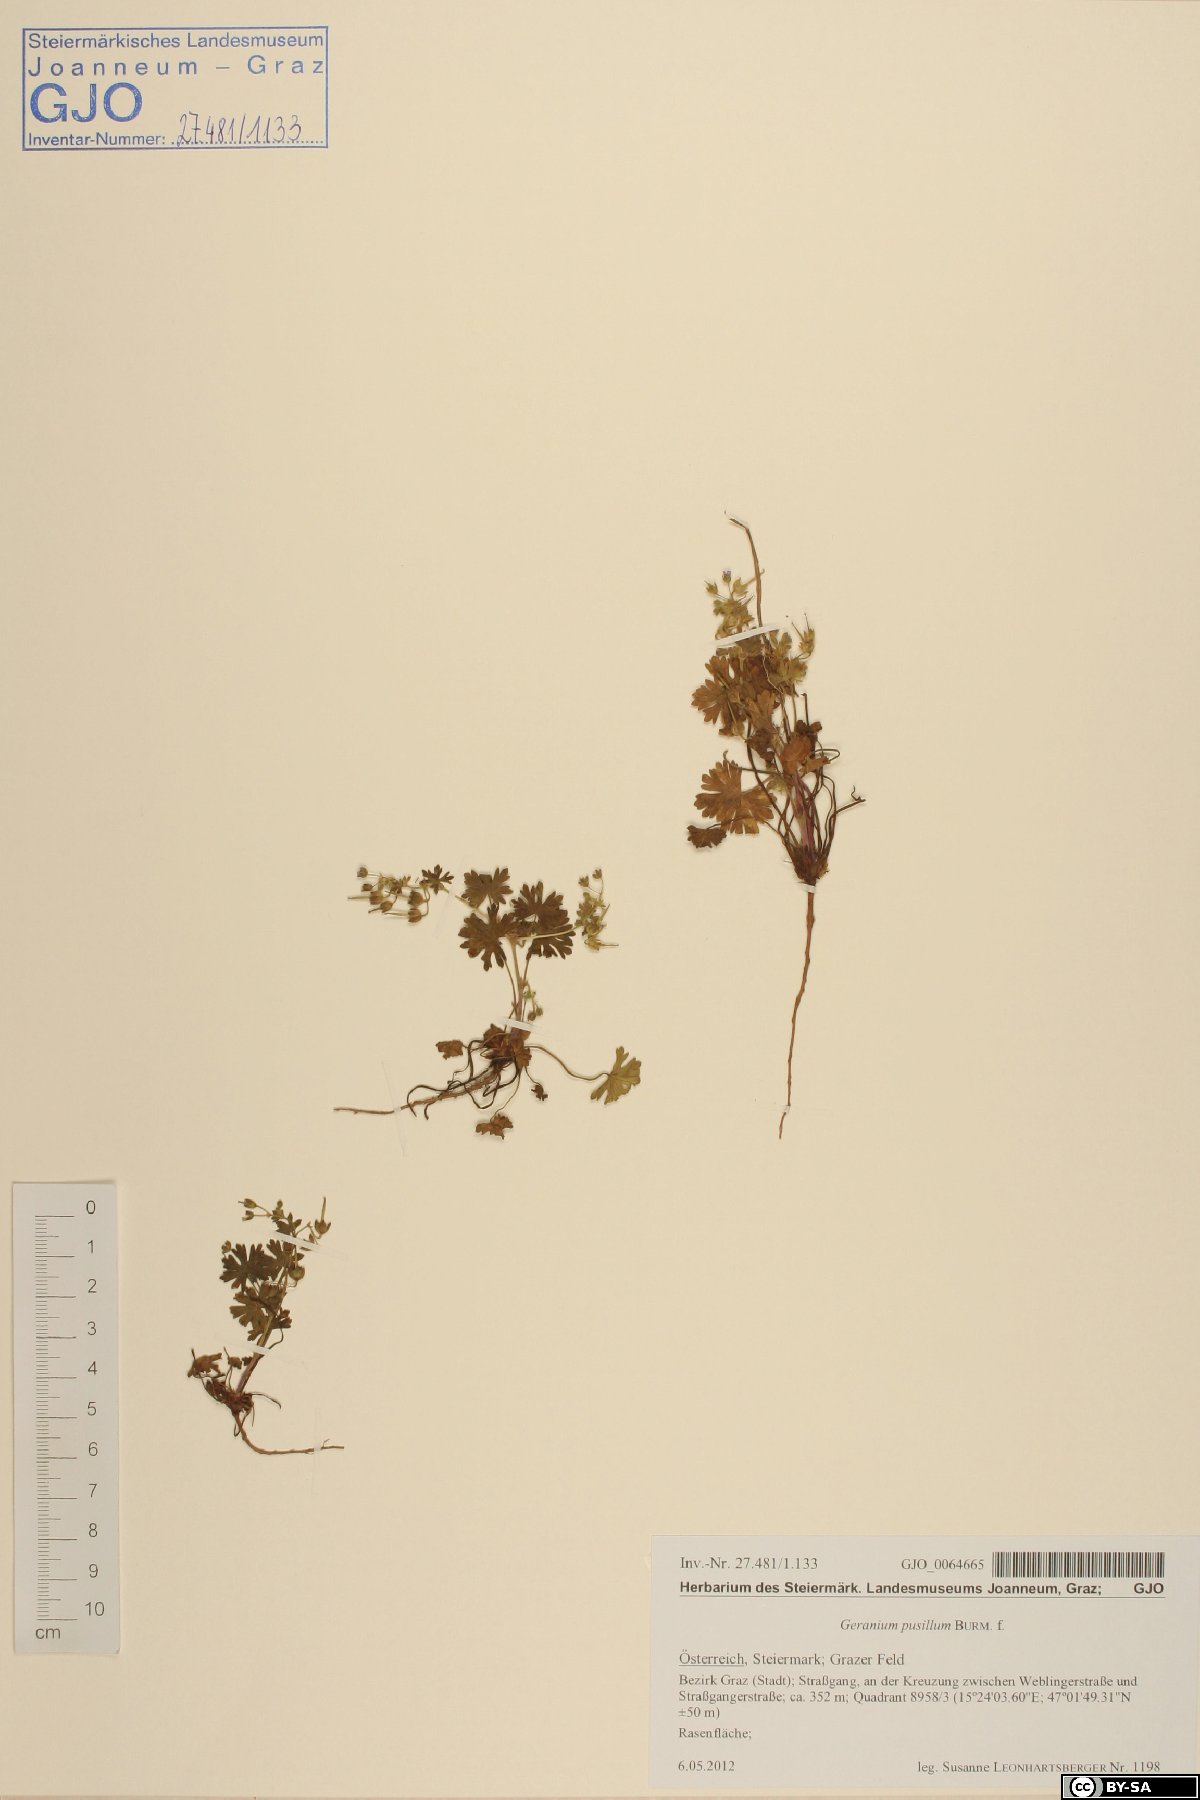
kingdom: Plantae
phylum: Tracheophyta
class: Magnoliopsida
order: Geraniales
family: Geraniaceae
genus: Geranium
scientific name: Geranium pusillum
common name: Small geranium
